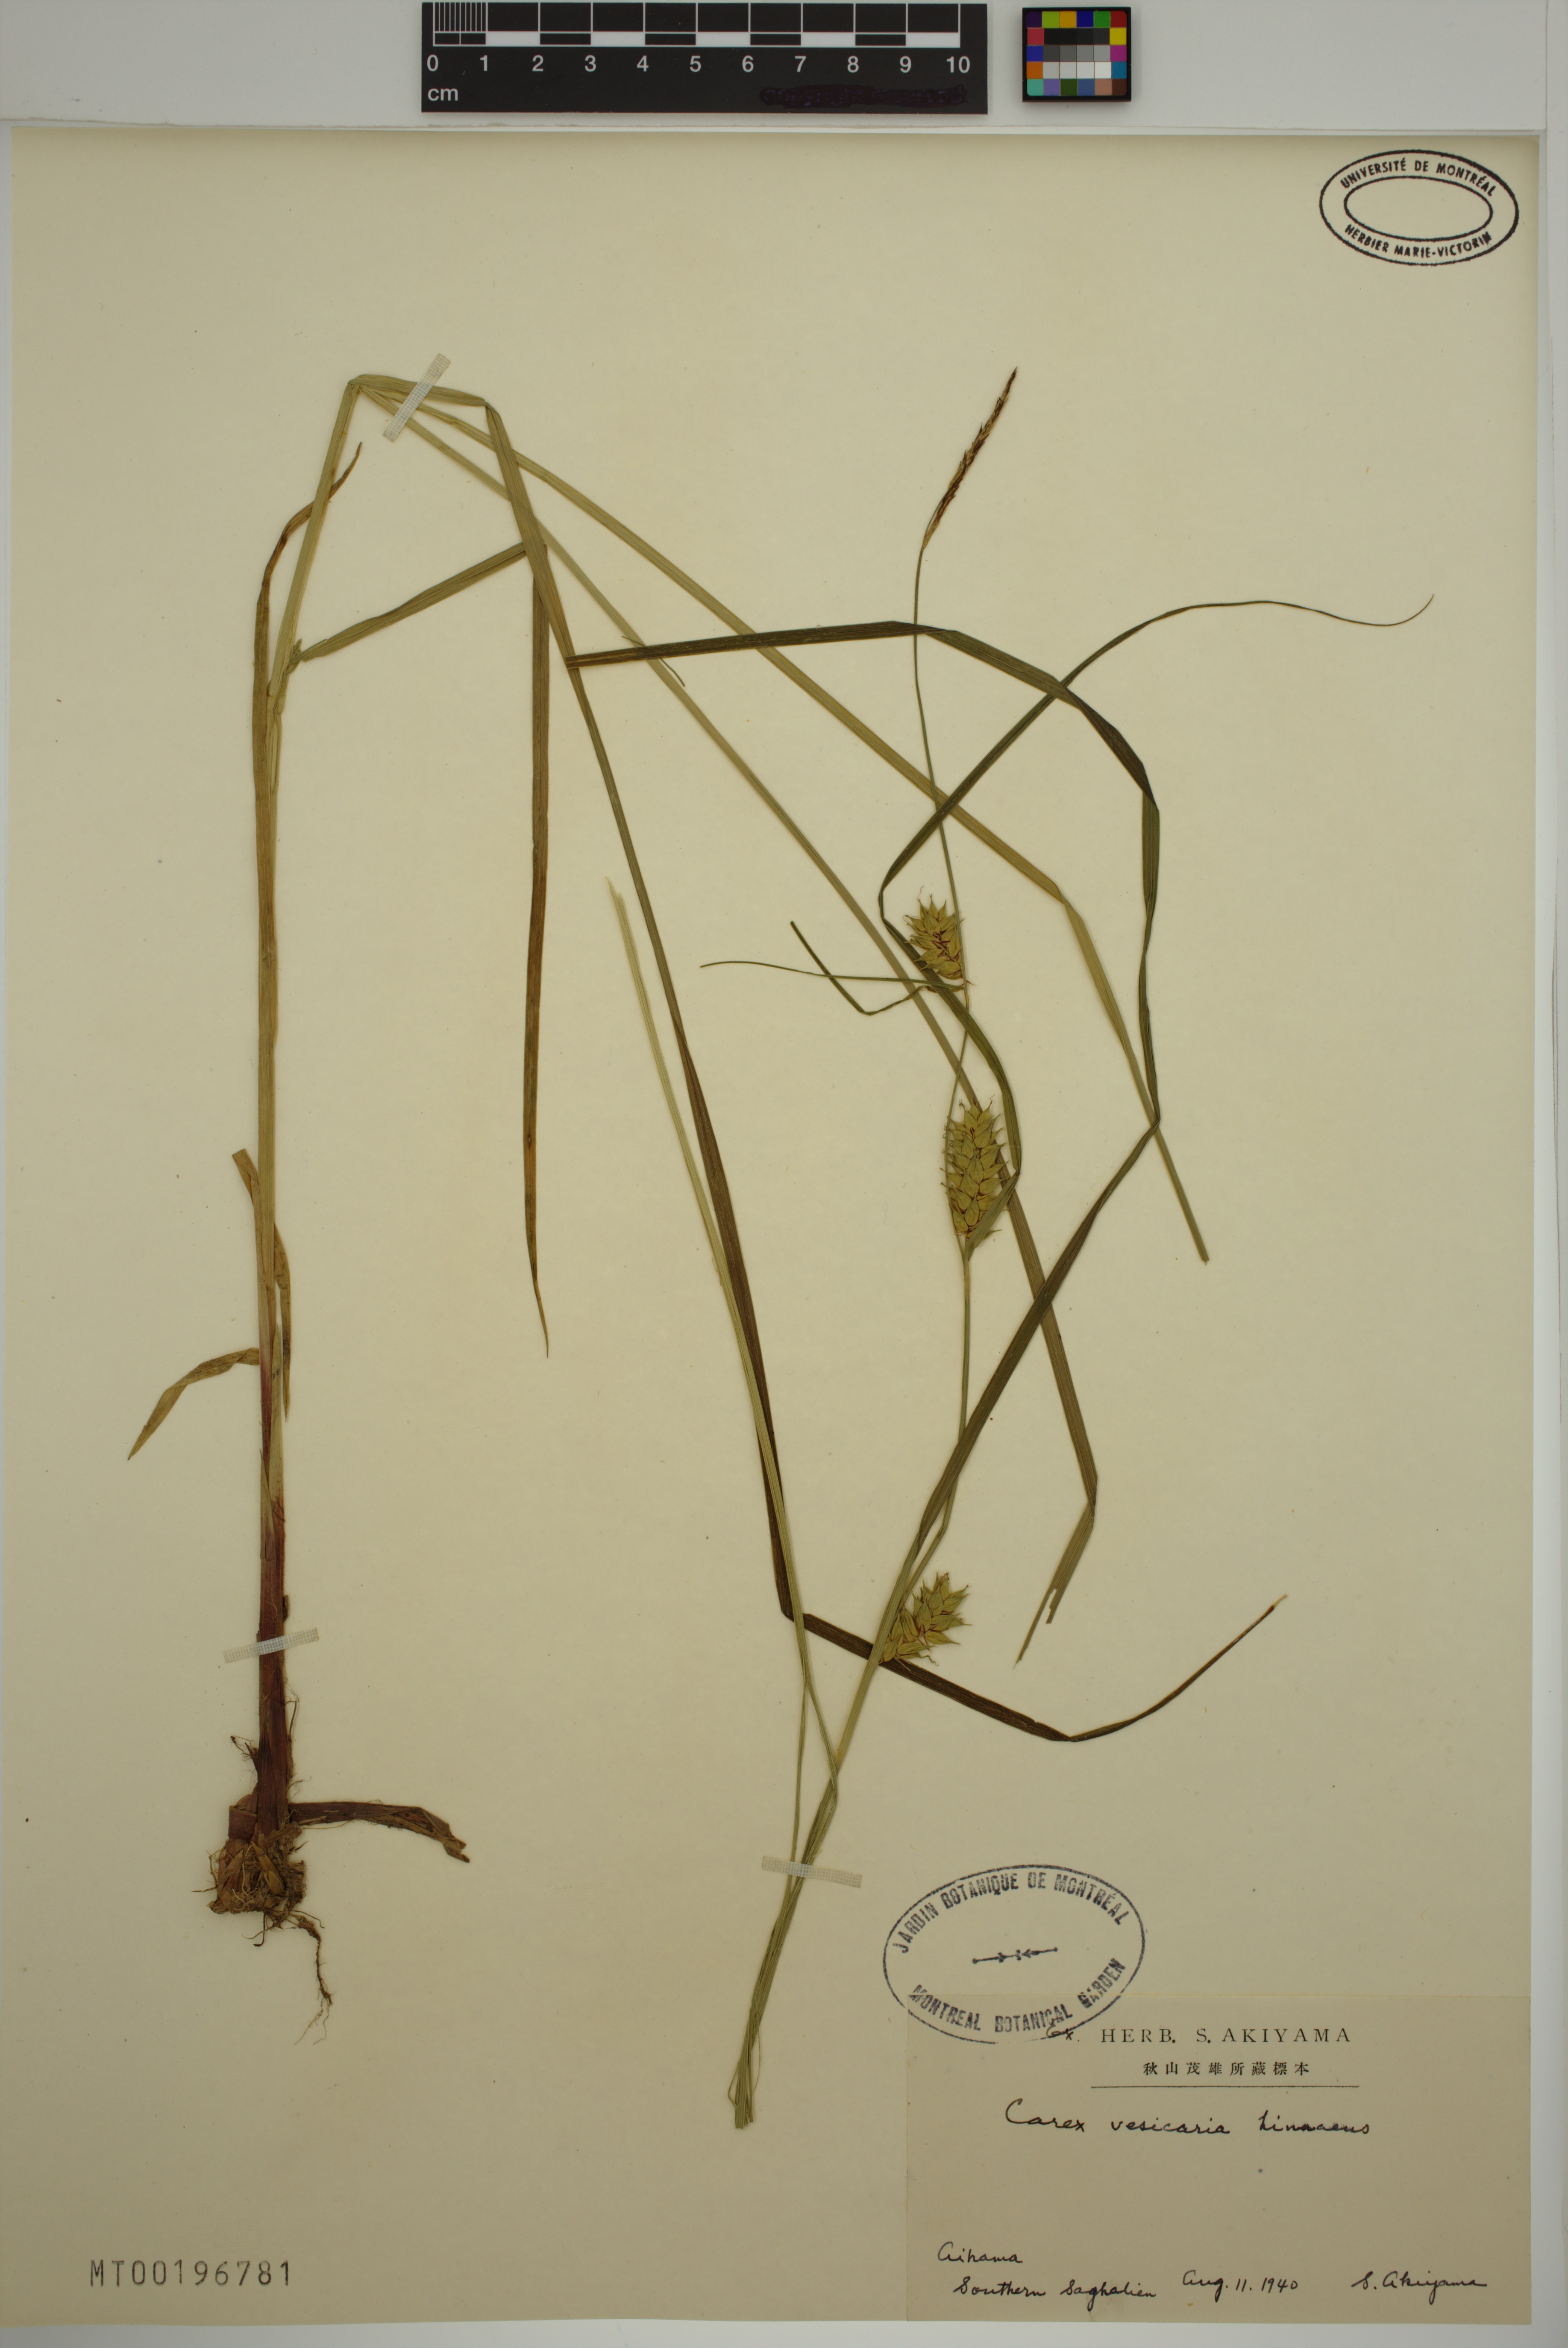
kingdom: Plantae
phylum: Tracheophyta
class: Liliopsida
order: Poales
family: Cyperaceae
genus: Carex
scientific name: Carex vesicaria
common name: Bladder-sedge
